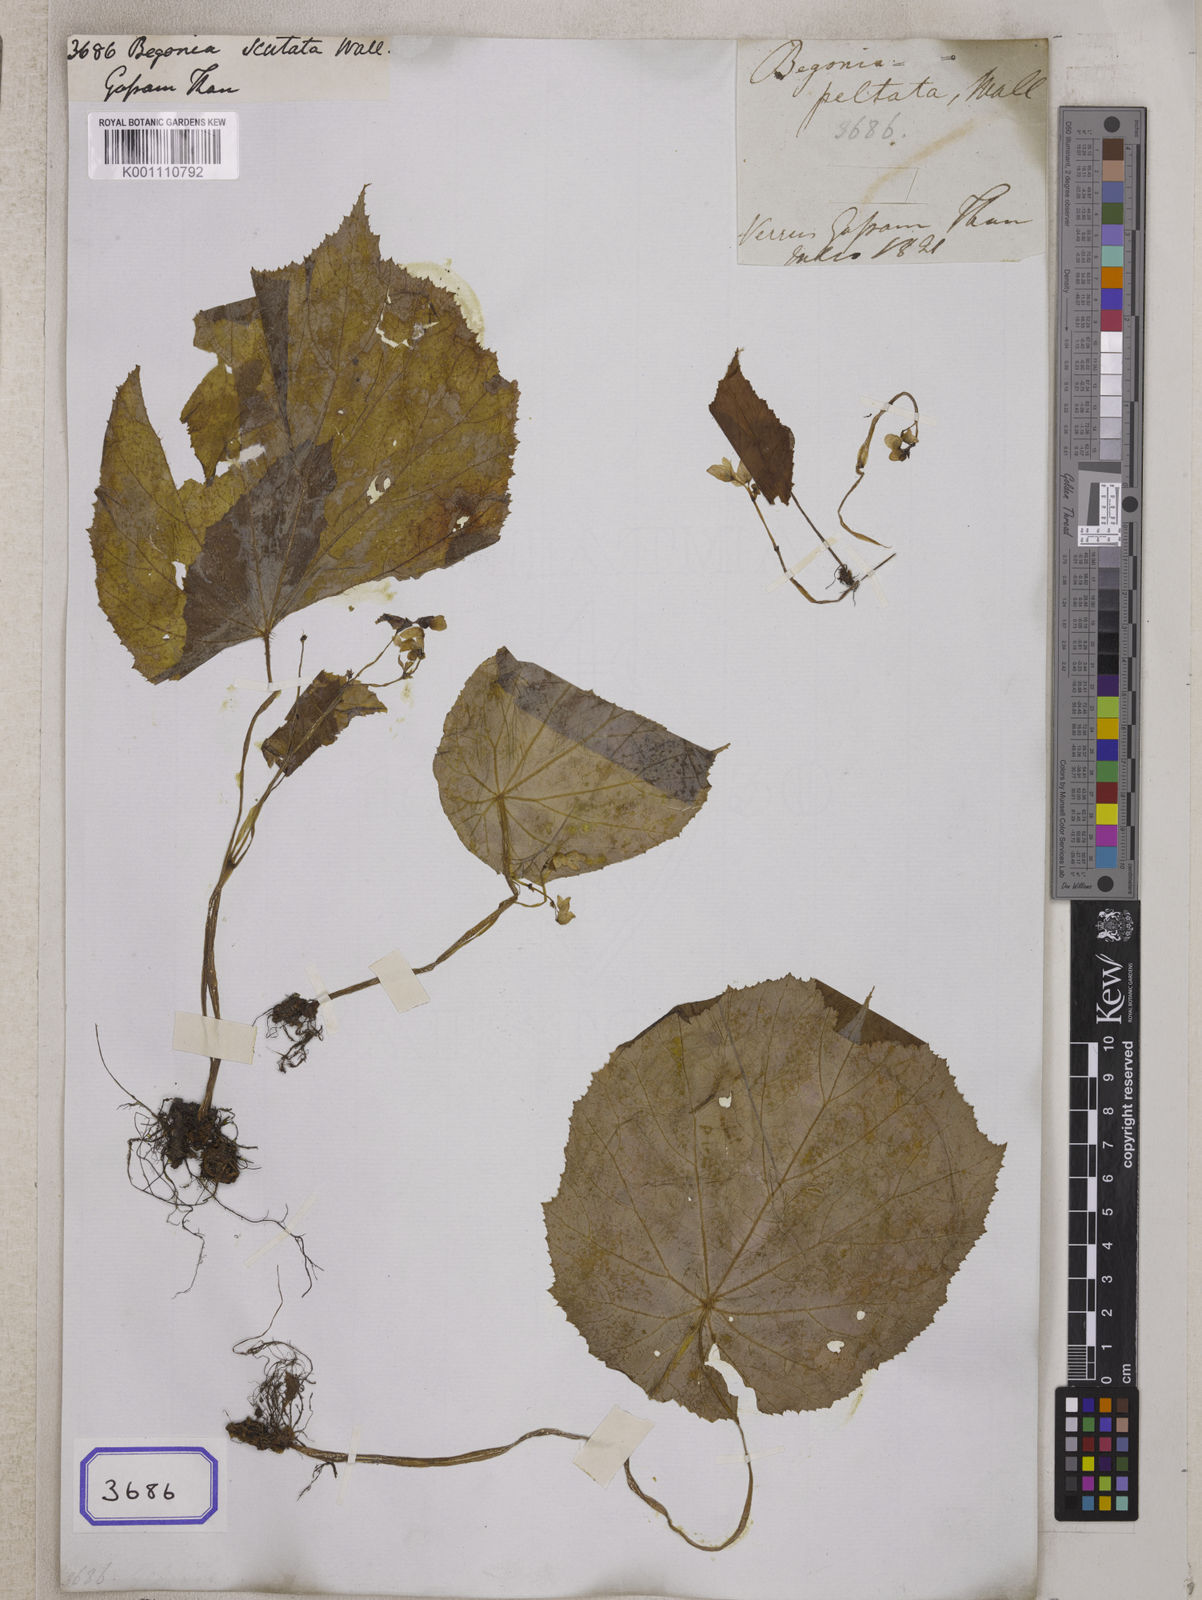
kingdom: Plantae
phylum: Tracheophyta
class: Magnoliopsida
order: Cucurbitales
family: Begoniaceae
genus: Begonia
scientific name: Begonia
